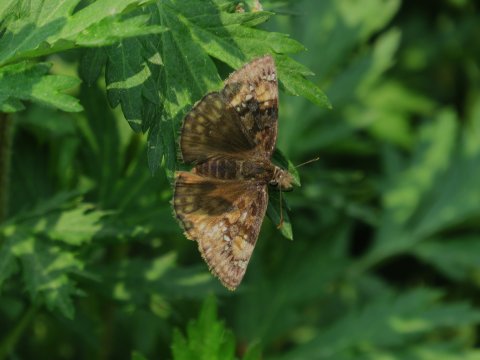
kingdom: Animalia
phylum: Arthropoda
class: Insecta
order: Lepidoptera
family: Hesperiidae
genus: Gesta
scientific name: Gesta
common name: Horace's Duskywing
